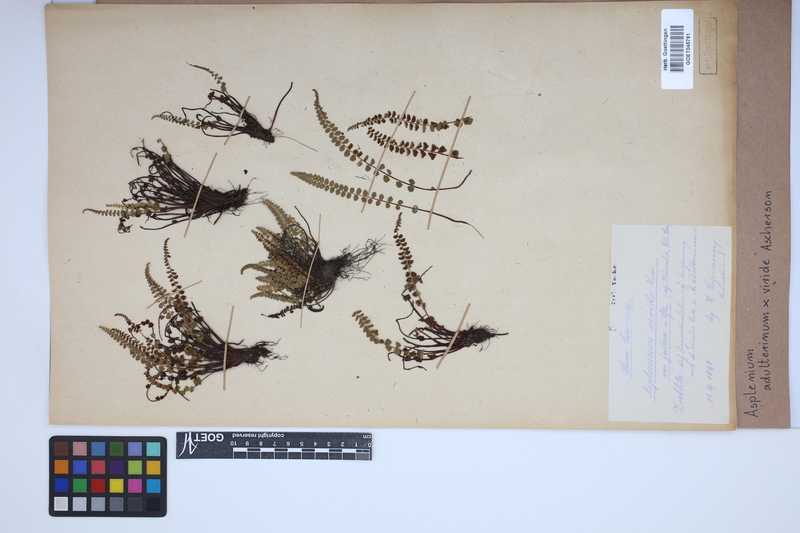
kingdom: Plantae
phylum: Tracheophyta
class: Polypodiopsida
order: Polypodiales
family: Aspleniaceae
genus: Asplenium
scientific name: Asplenium
